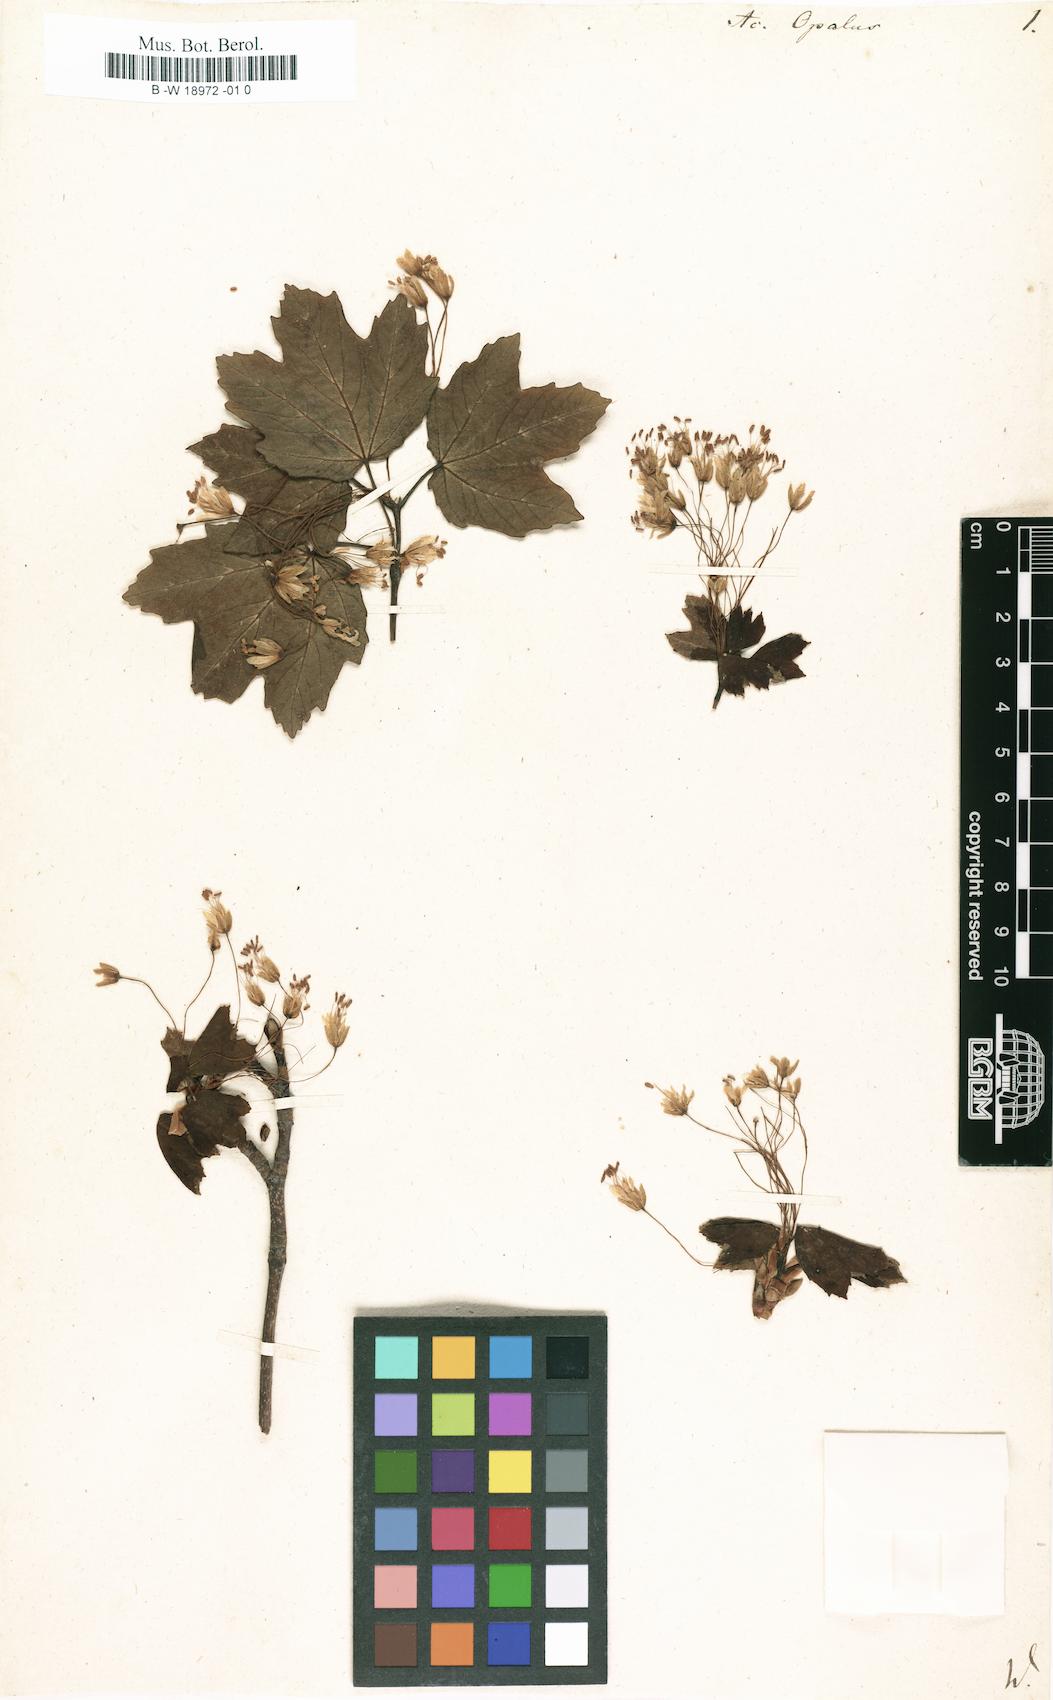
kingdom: Plantae
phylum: Tracheophyta
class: Magnoliopsida
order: Sapindales
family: Sapindaceae
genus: Acer
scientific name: Acer opalus
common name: Italian maple
